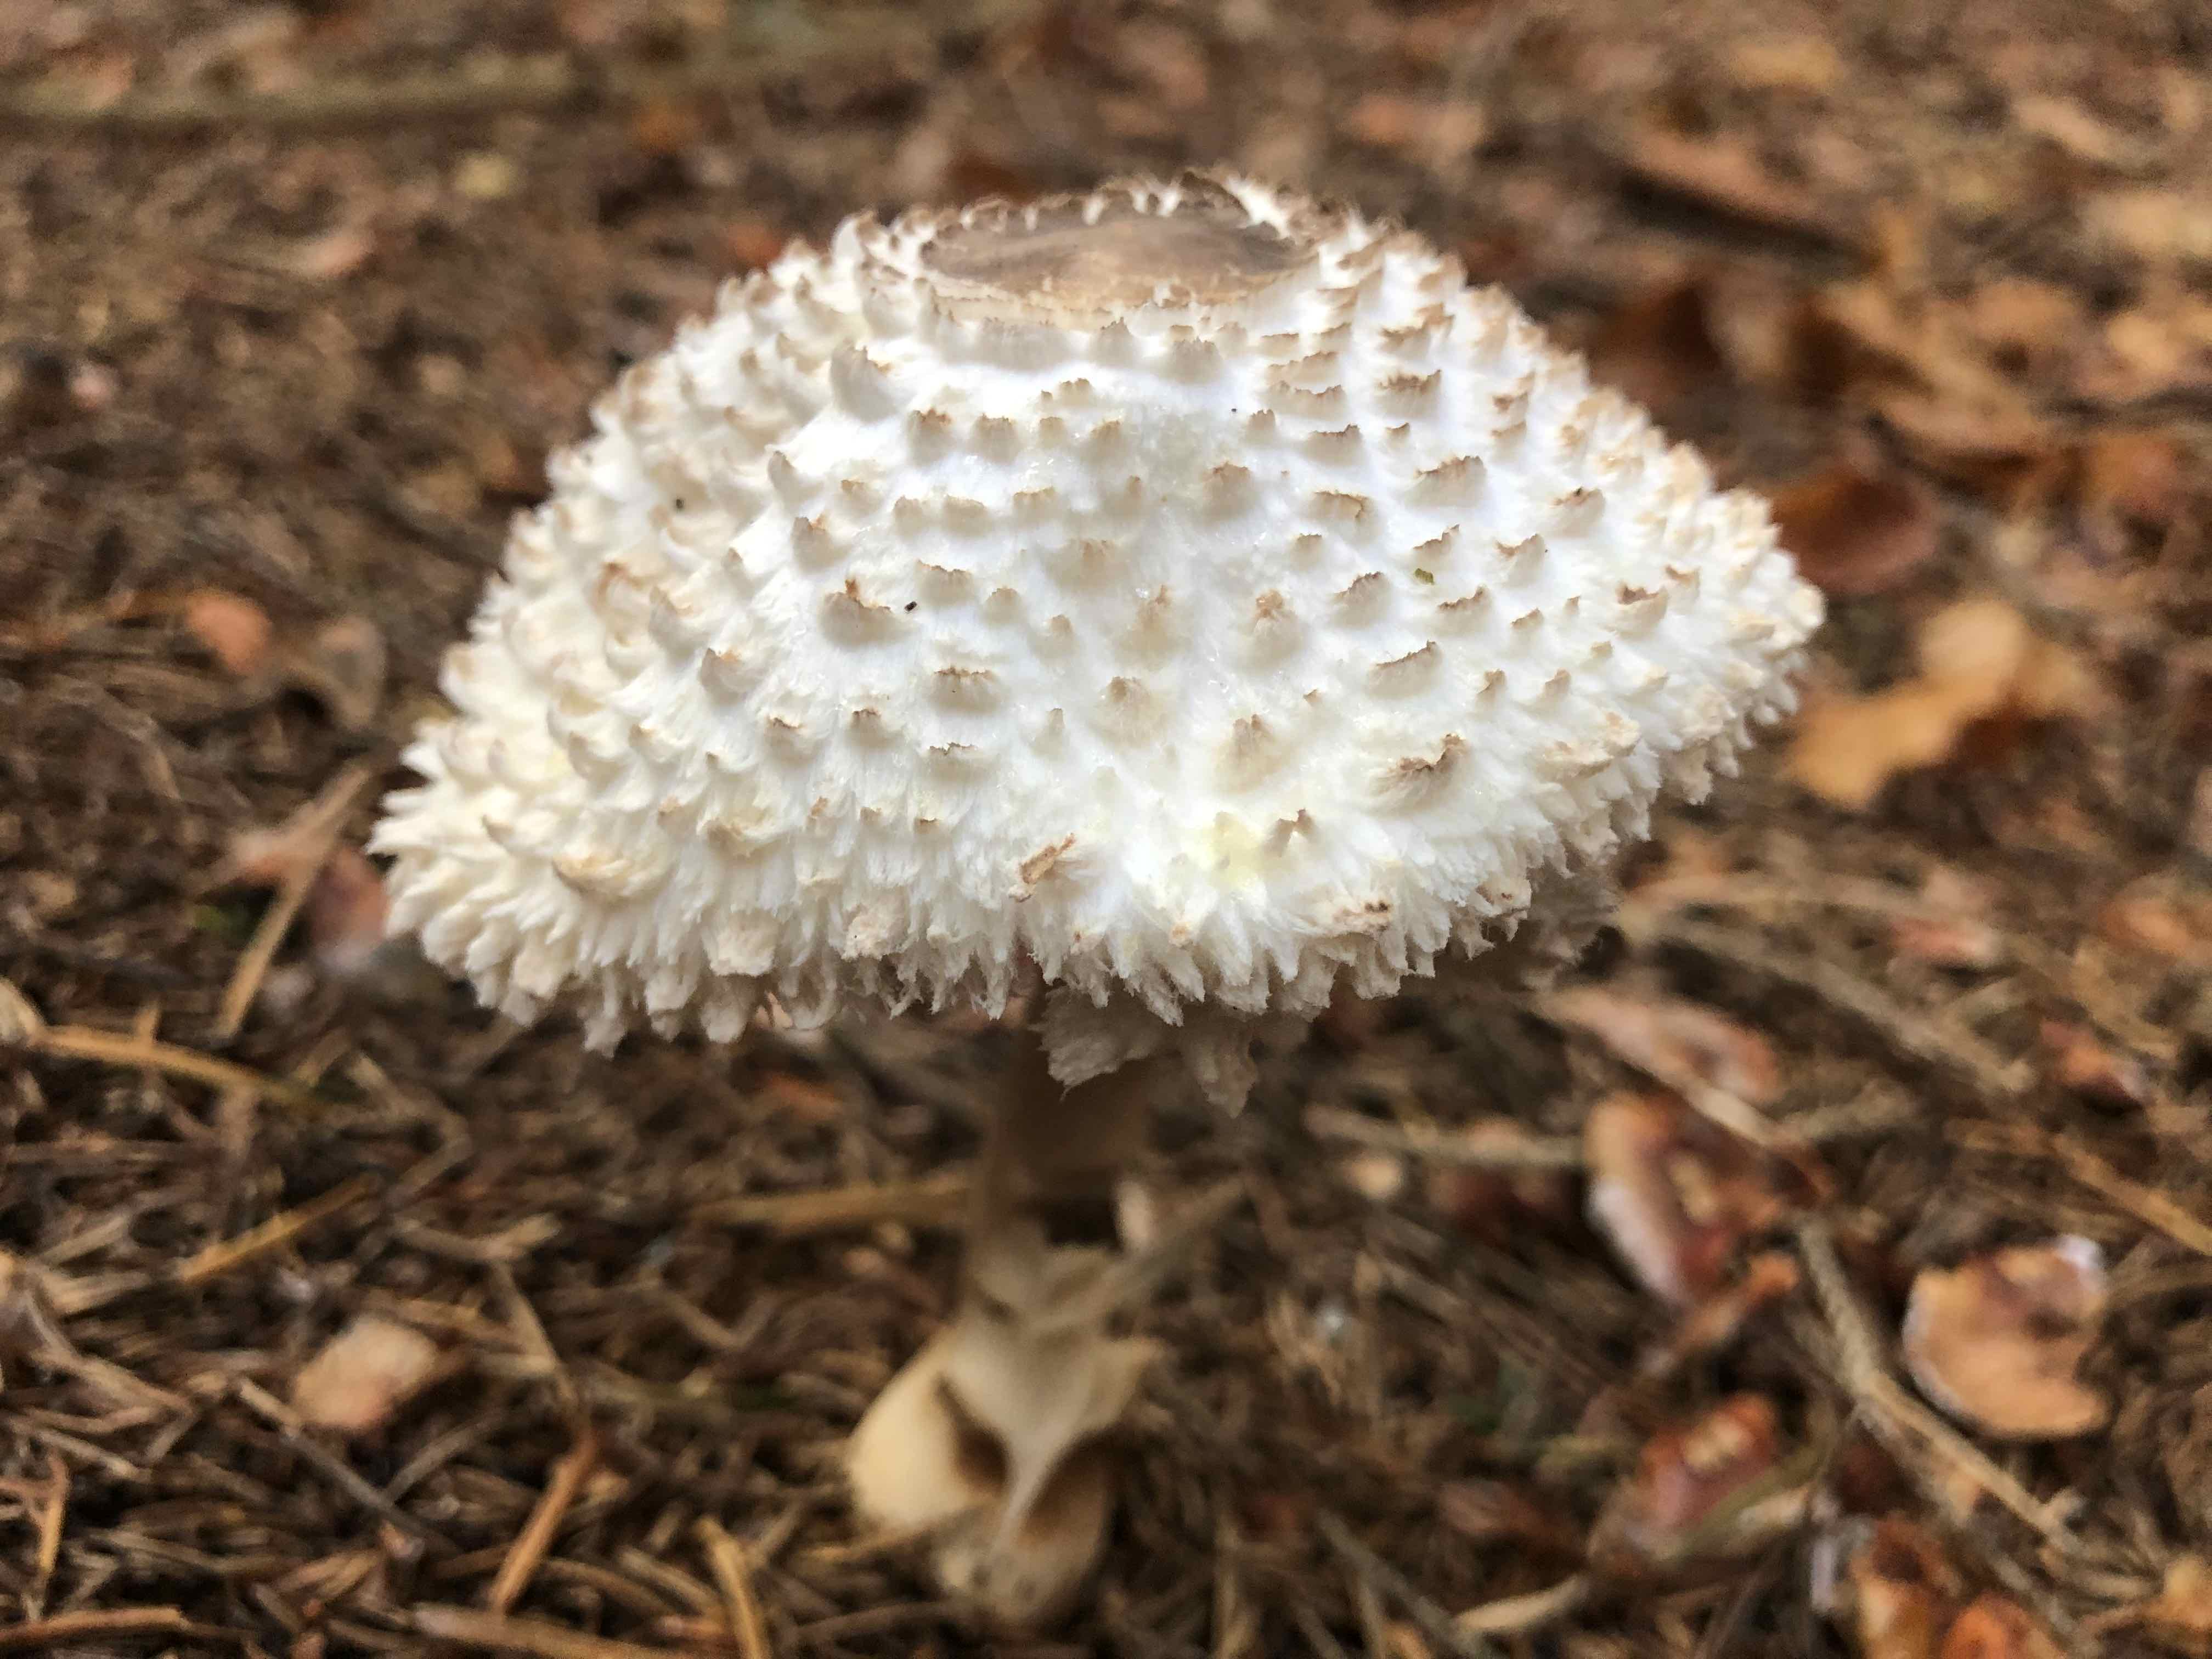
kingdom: Fungi
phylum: Basidiomycota
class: Agaricomycetes
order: Agaricales
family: Agaricaceae
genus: Leucoagaricus
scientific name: Leucoagaricus nympharum
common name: gran-silkehat
